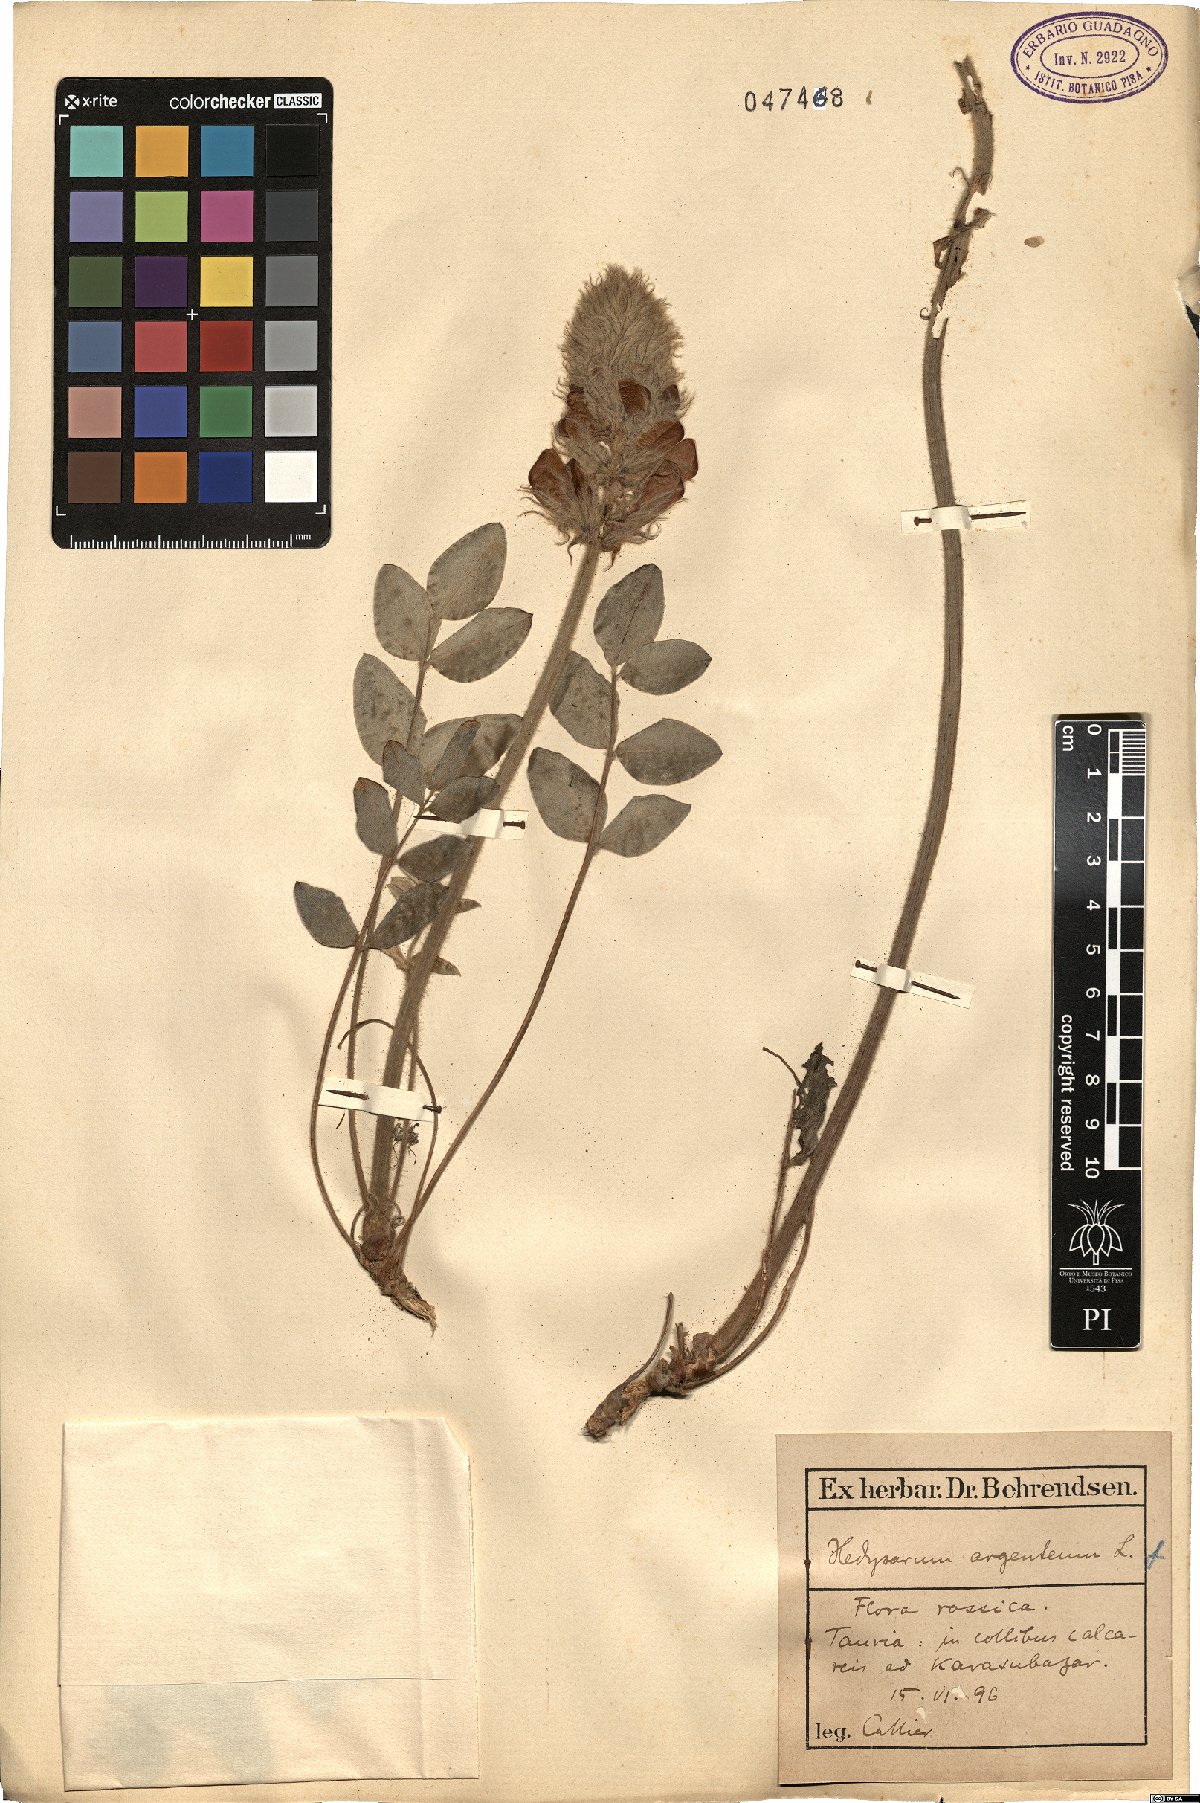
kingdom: Plantae
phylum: Tracheophyta
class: Magnoliopsida
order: Fabales
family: Fabaceae
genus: Hedysarum
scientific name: Hedysarum biebersteinii
